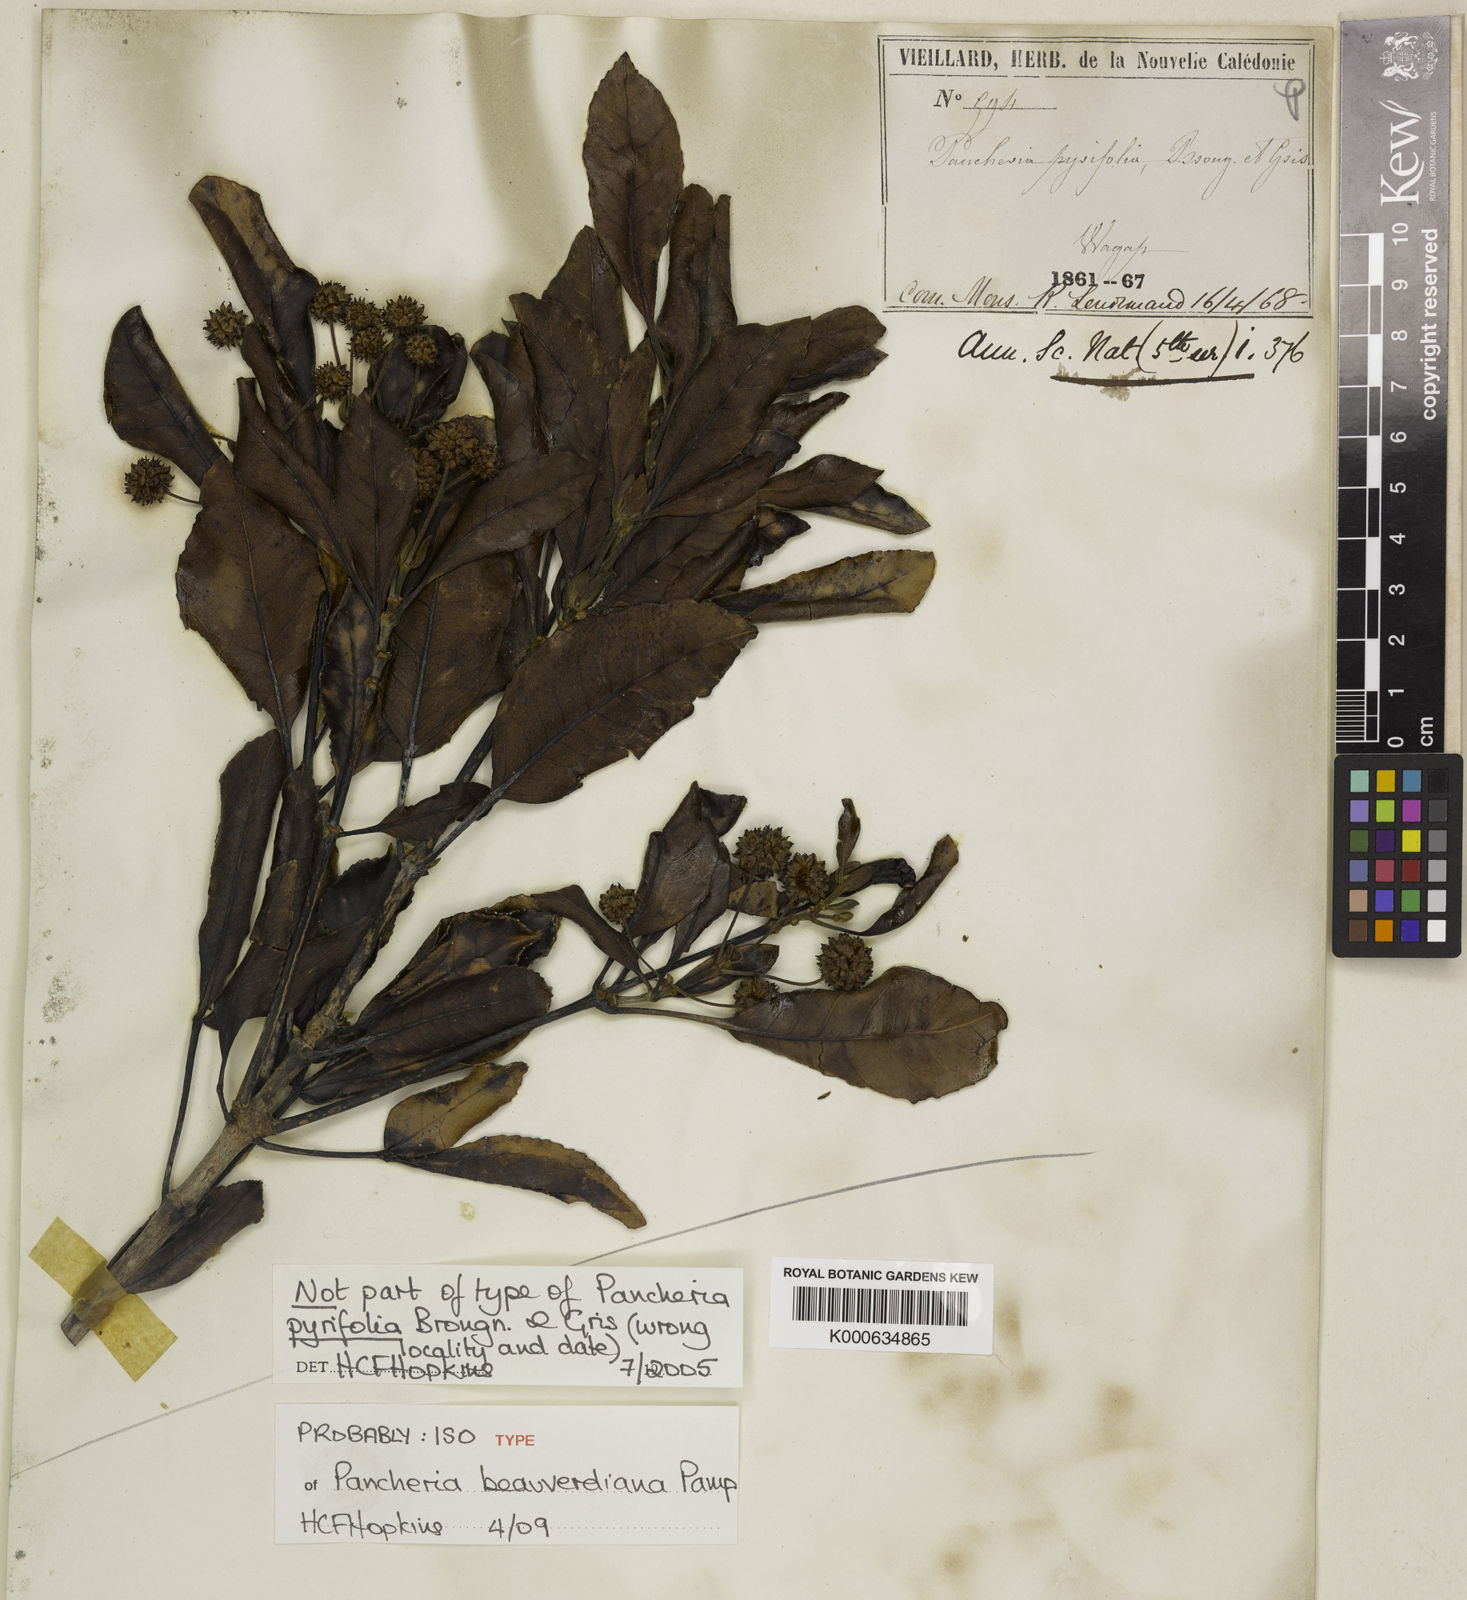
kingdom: Plantae
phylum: Tracheophyta
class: Magnoliopsida
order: Oxalidales
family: Cunoniaceae
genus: Pancheria
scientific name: Pancheria beauverdiana
